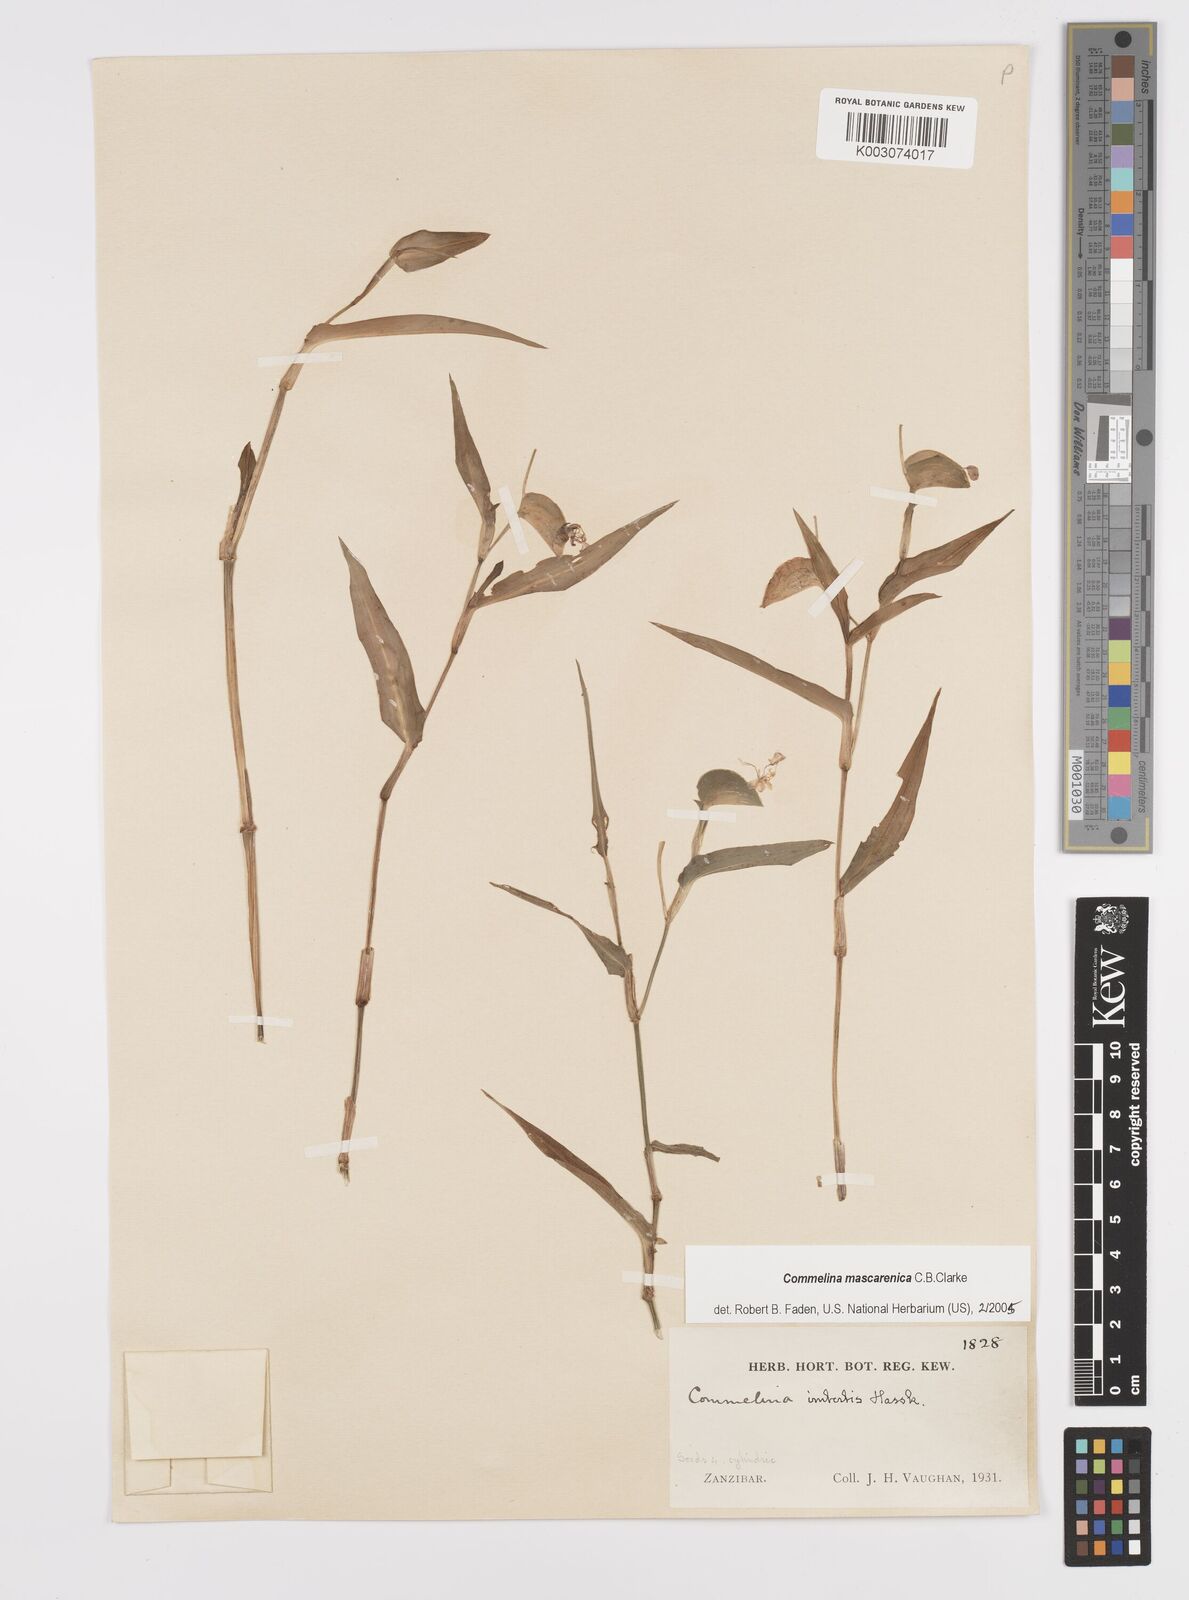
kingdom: Plantae
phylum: Tracheophyta
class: Liliopsida
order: Commelinales
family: Commelinaceae
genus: Commelina
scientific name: Commelina mascarenica
